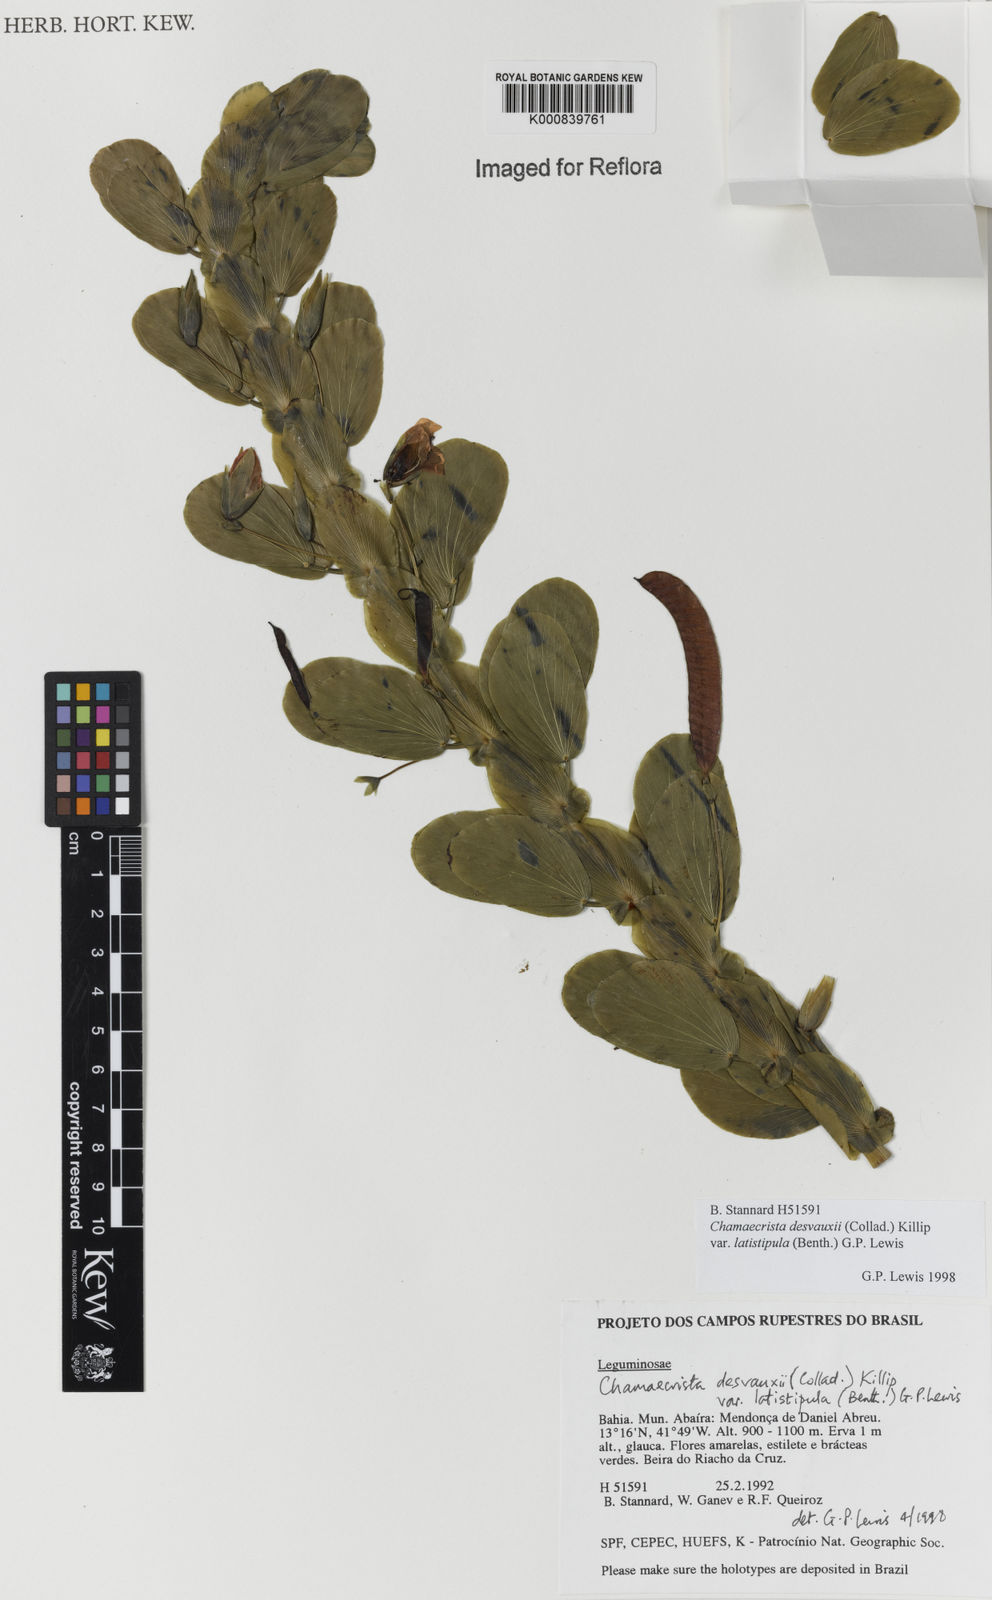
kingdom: Plantae
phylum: Tracheophyta
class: Magnoliopsida
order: Fabales
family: Fabaceae
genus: Chamaecrista
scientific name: Chamaecrista desvauxii
